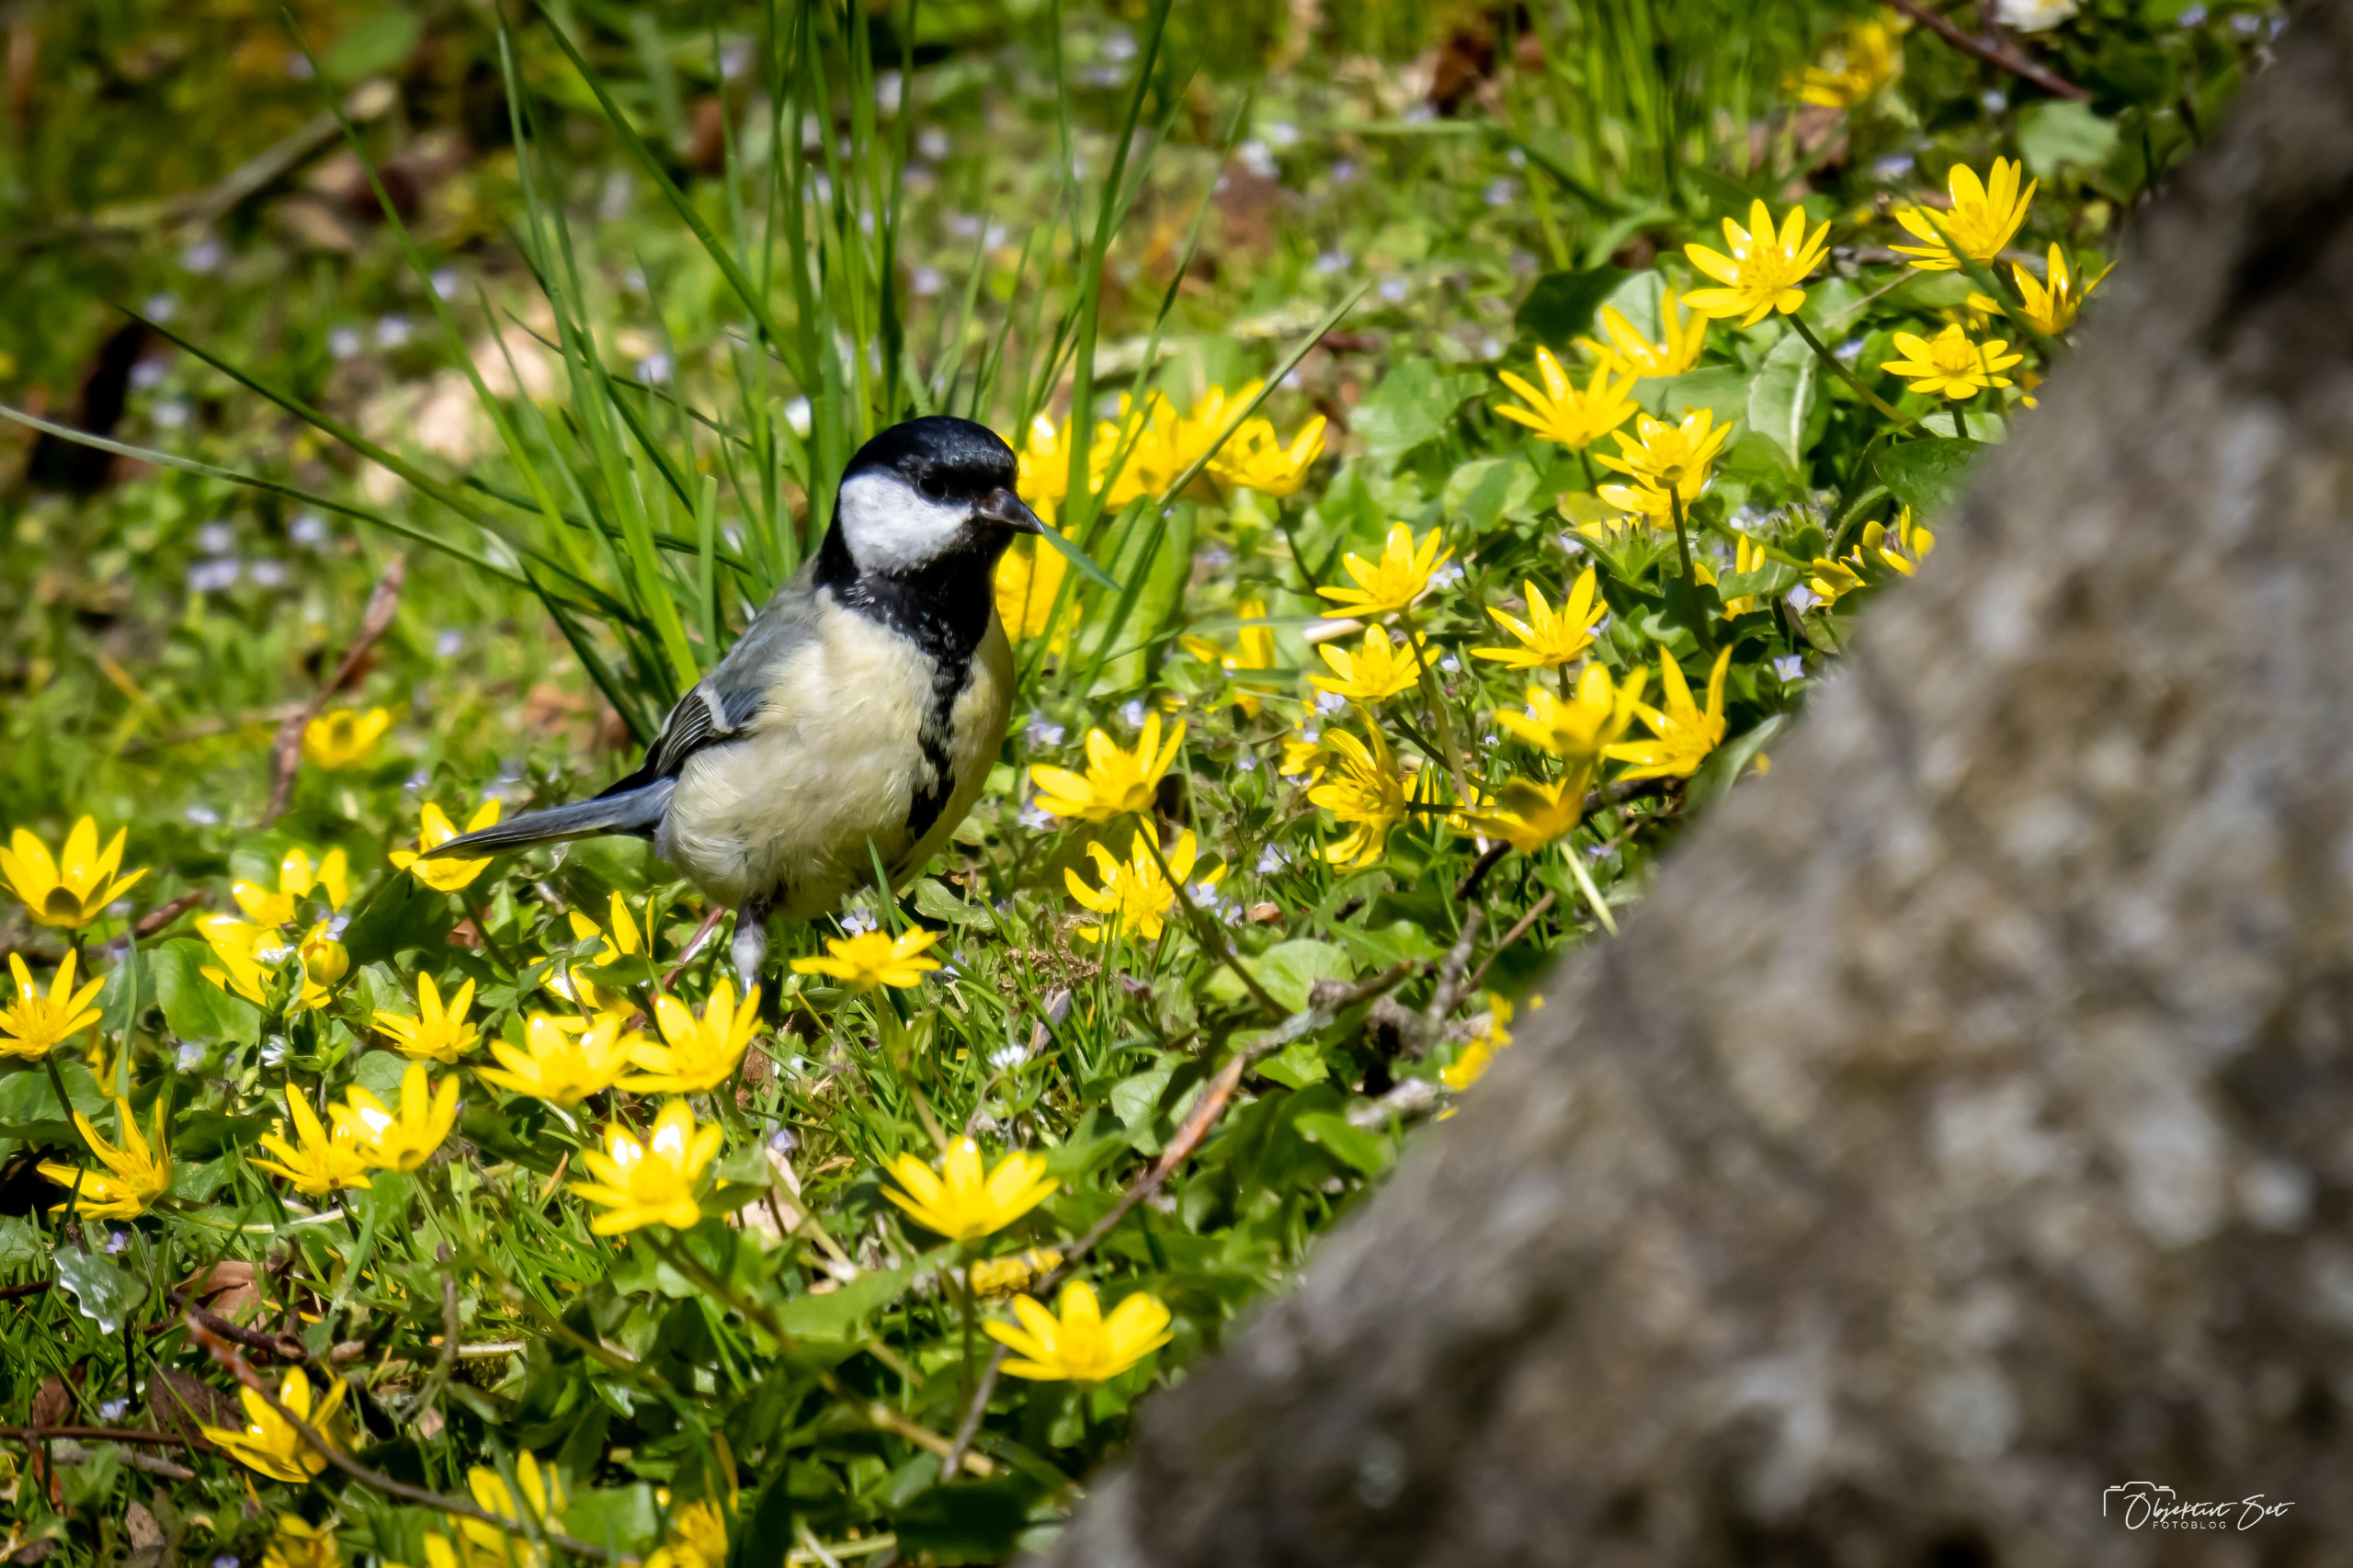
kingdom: Animalia
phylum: Chordata
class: Aves
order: Passeriformes
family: Paridae
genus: Parus
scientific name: Parus major
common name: Musvit
